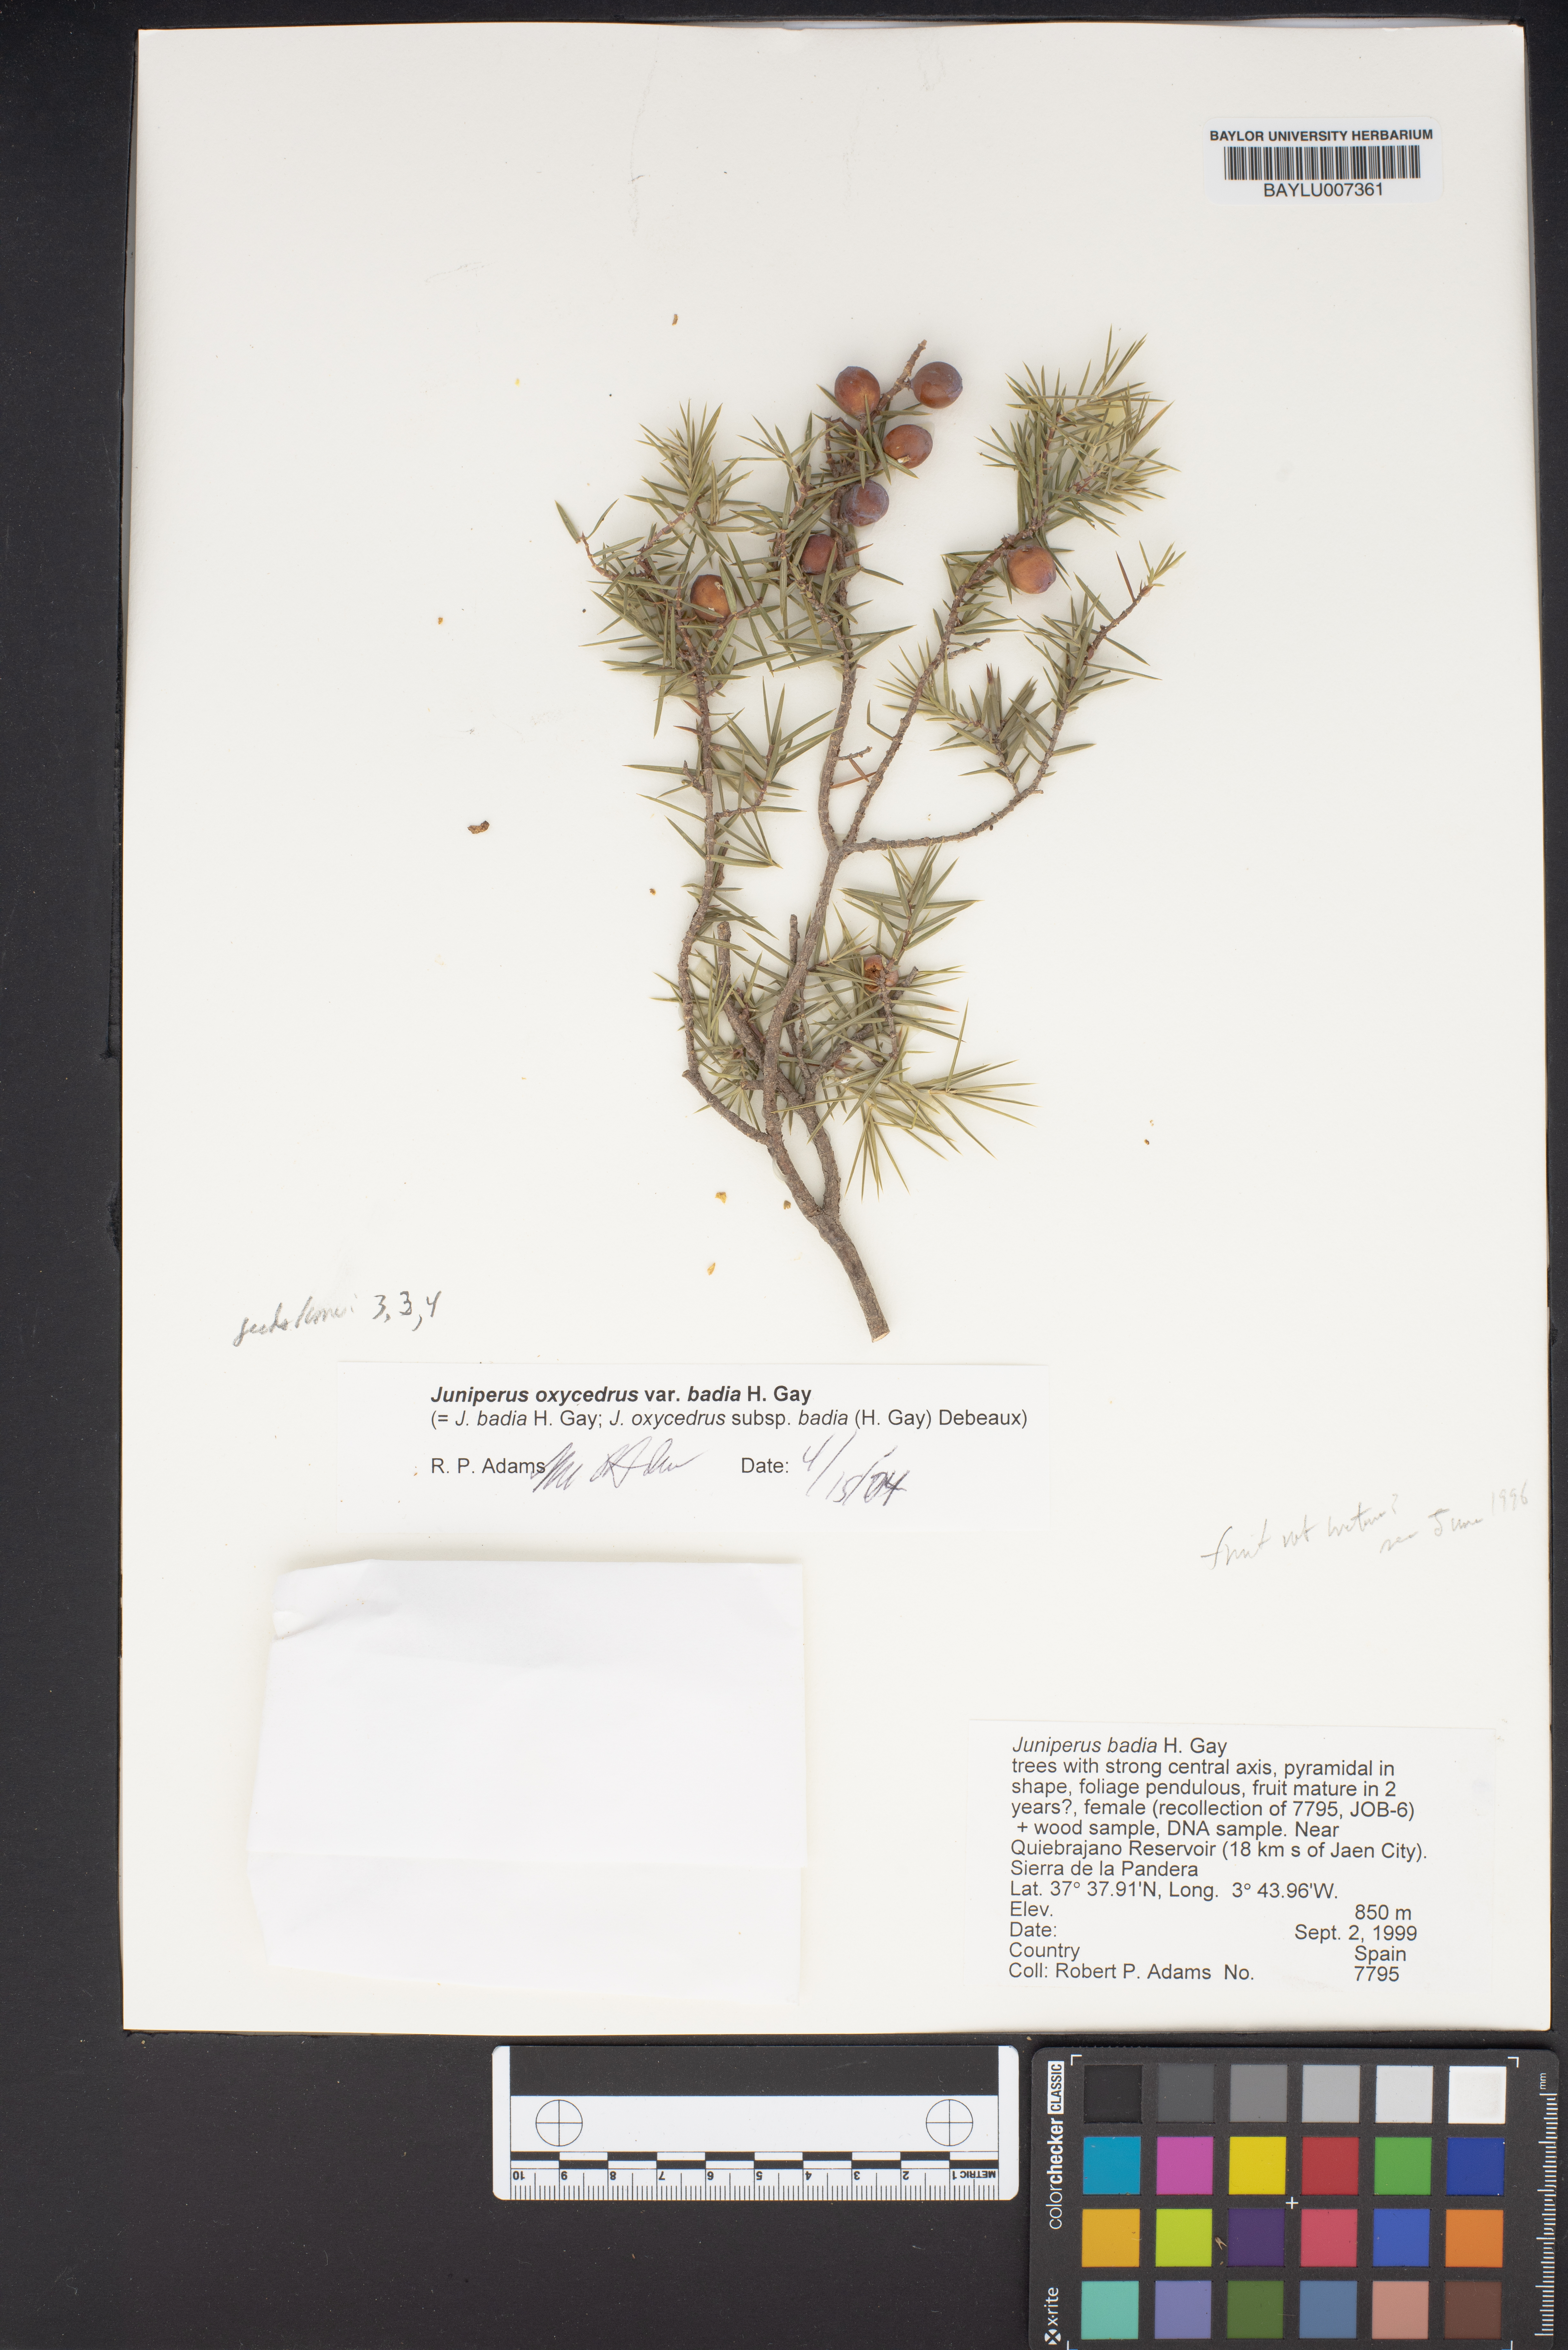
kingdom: Plantae
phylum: Tracheophyta
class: Pinopsida
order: Pinales
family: Cupressaceae
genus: Juniperus
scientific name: Juniperus oxycedrus
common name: Prickly juniper
